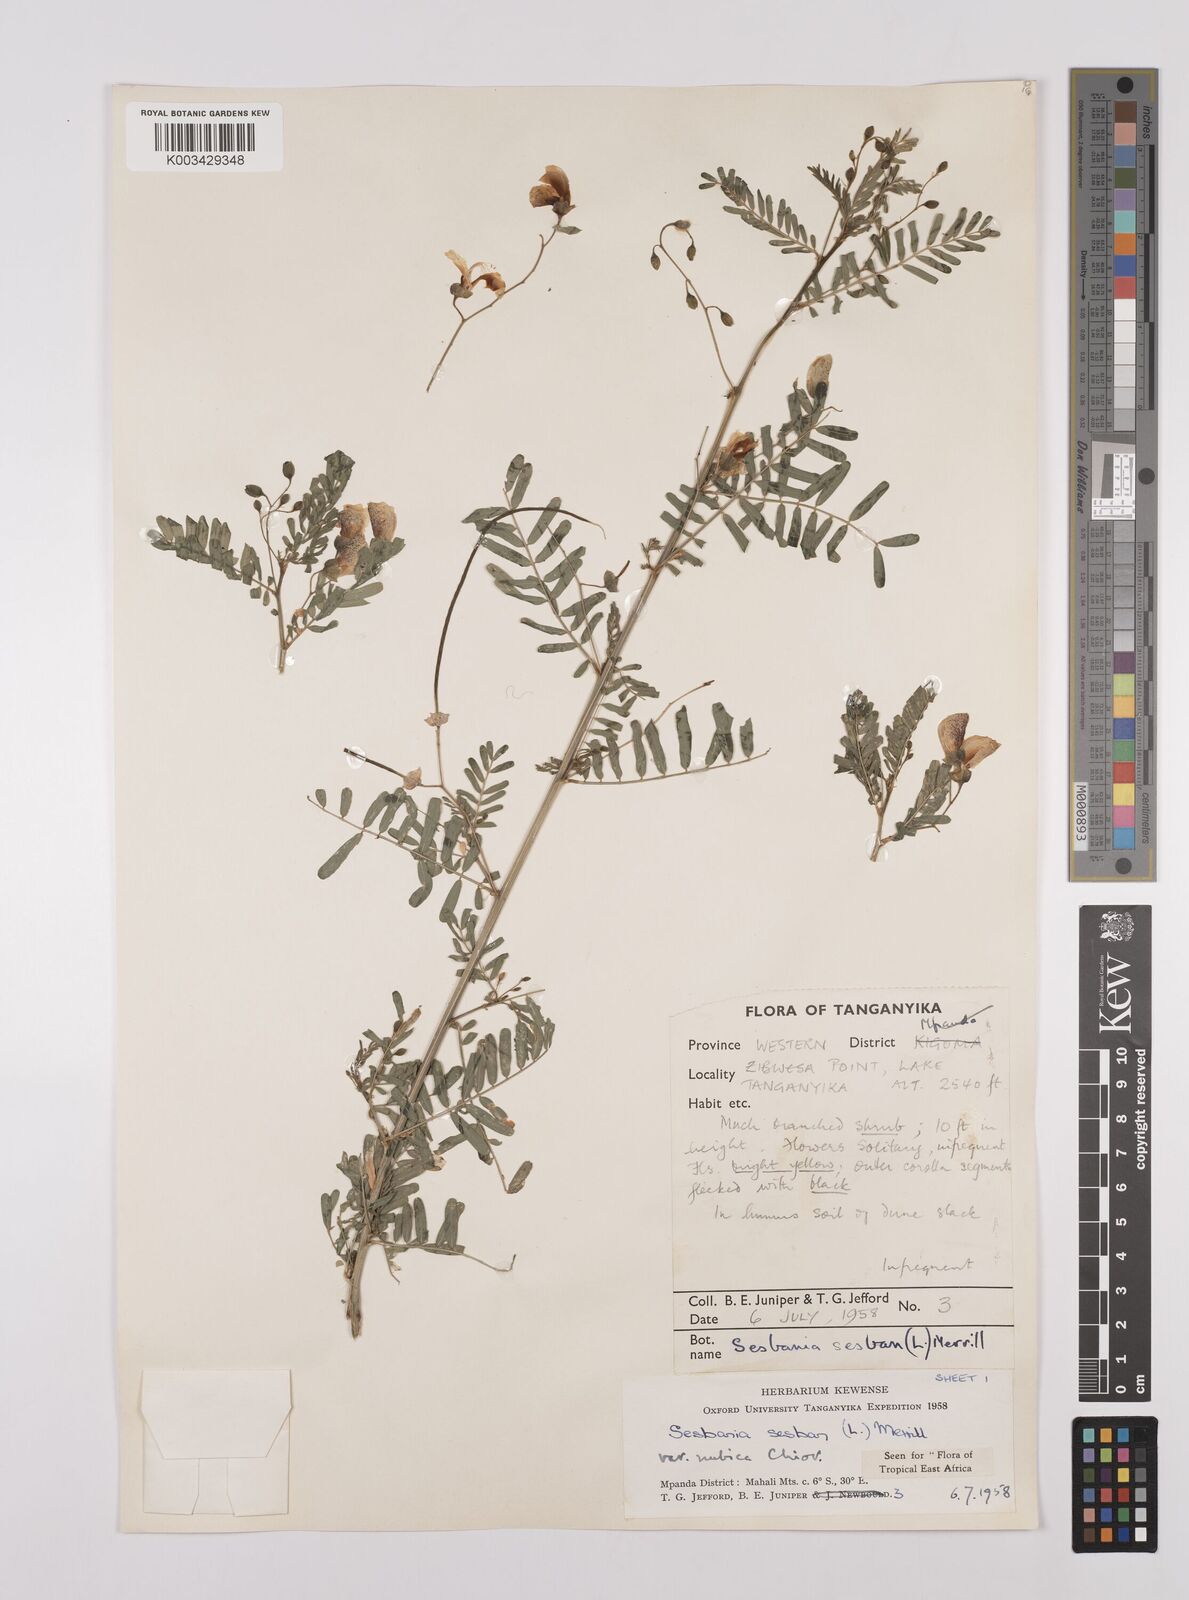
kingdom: Plantae
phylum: Tracheophyta
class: Magnoliopsida
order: Fabales
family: Fabaceae
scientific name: Fabaceae
